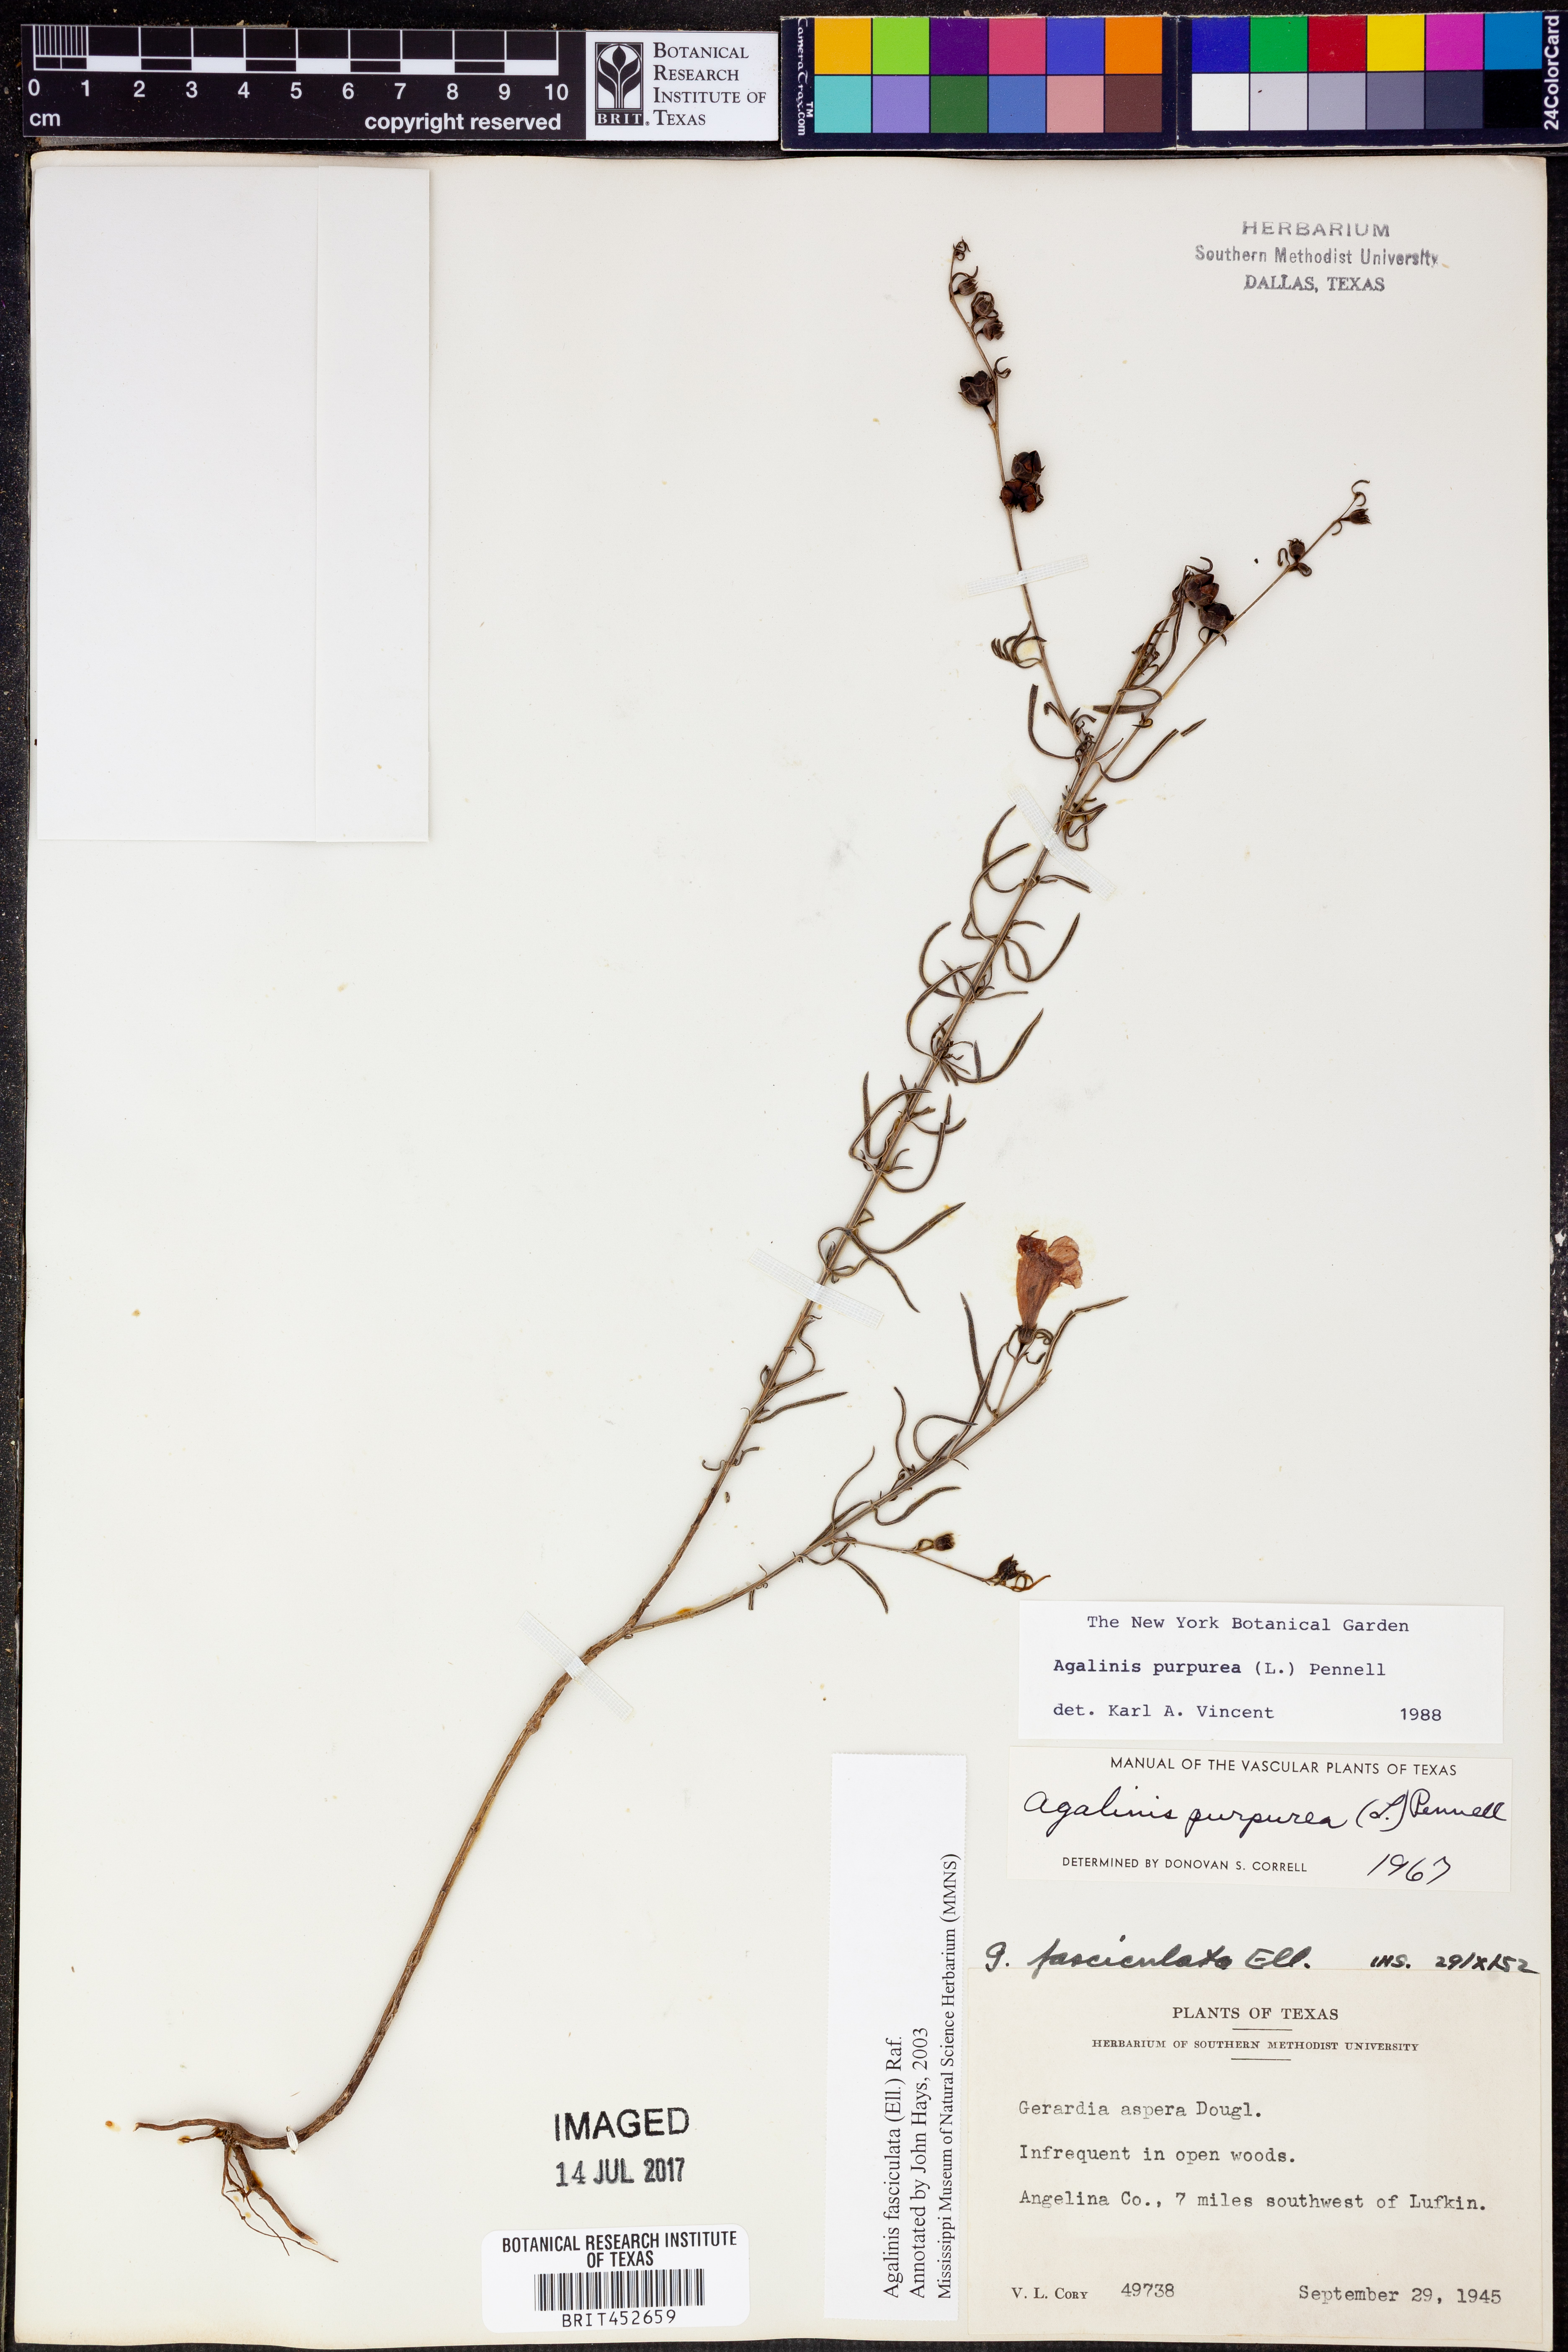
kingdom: Plantae
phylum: Tracheophyta
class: Magnoliopsida
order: Lamiales
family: Orobanchaceae
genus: Agalinis
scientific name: Agalinis fasciculata
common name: Beach false foxglove
